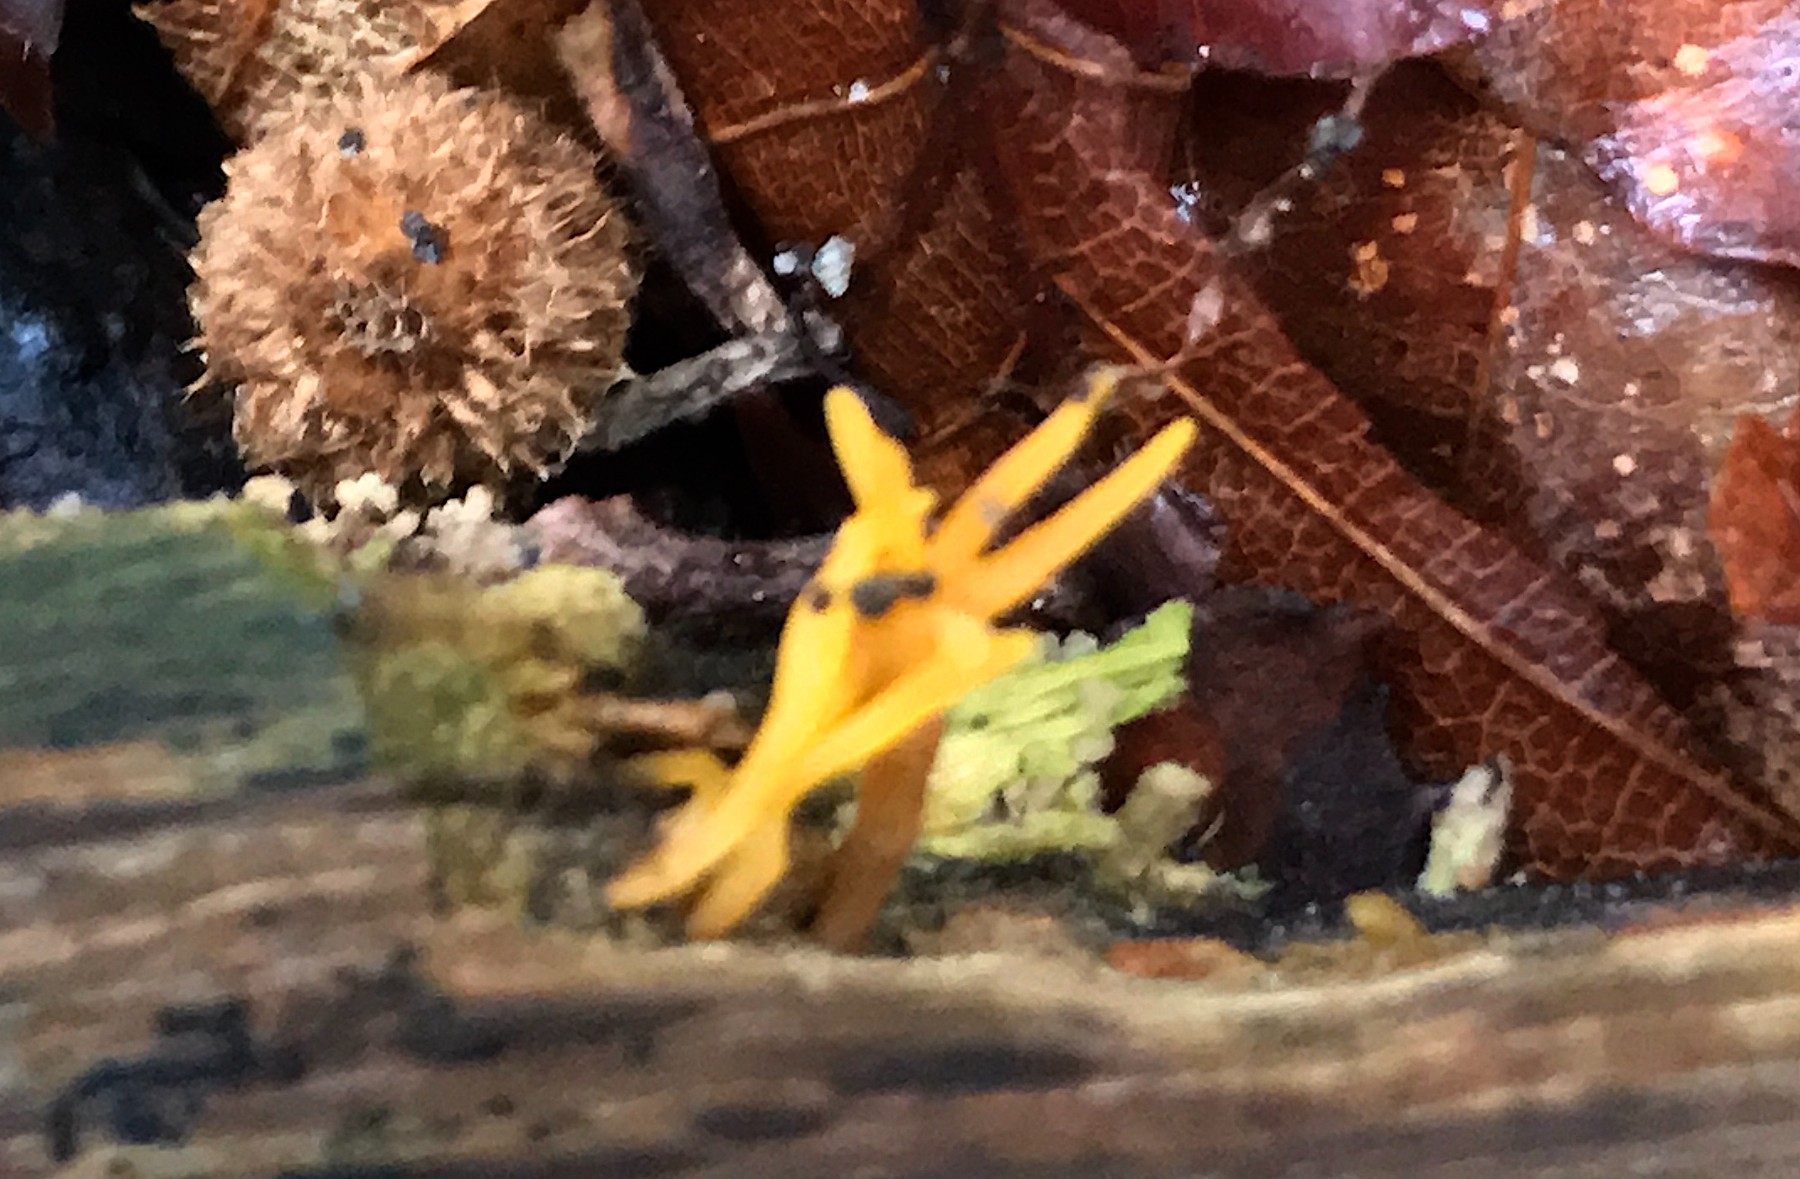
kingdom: Fungi
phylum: Basidiomycota
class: Dacrymycetes
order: Dacrymycetales
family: Dacrymycetaceae
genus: Calocera
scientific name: Calocera cornea
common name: liden guldgaffel
